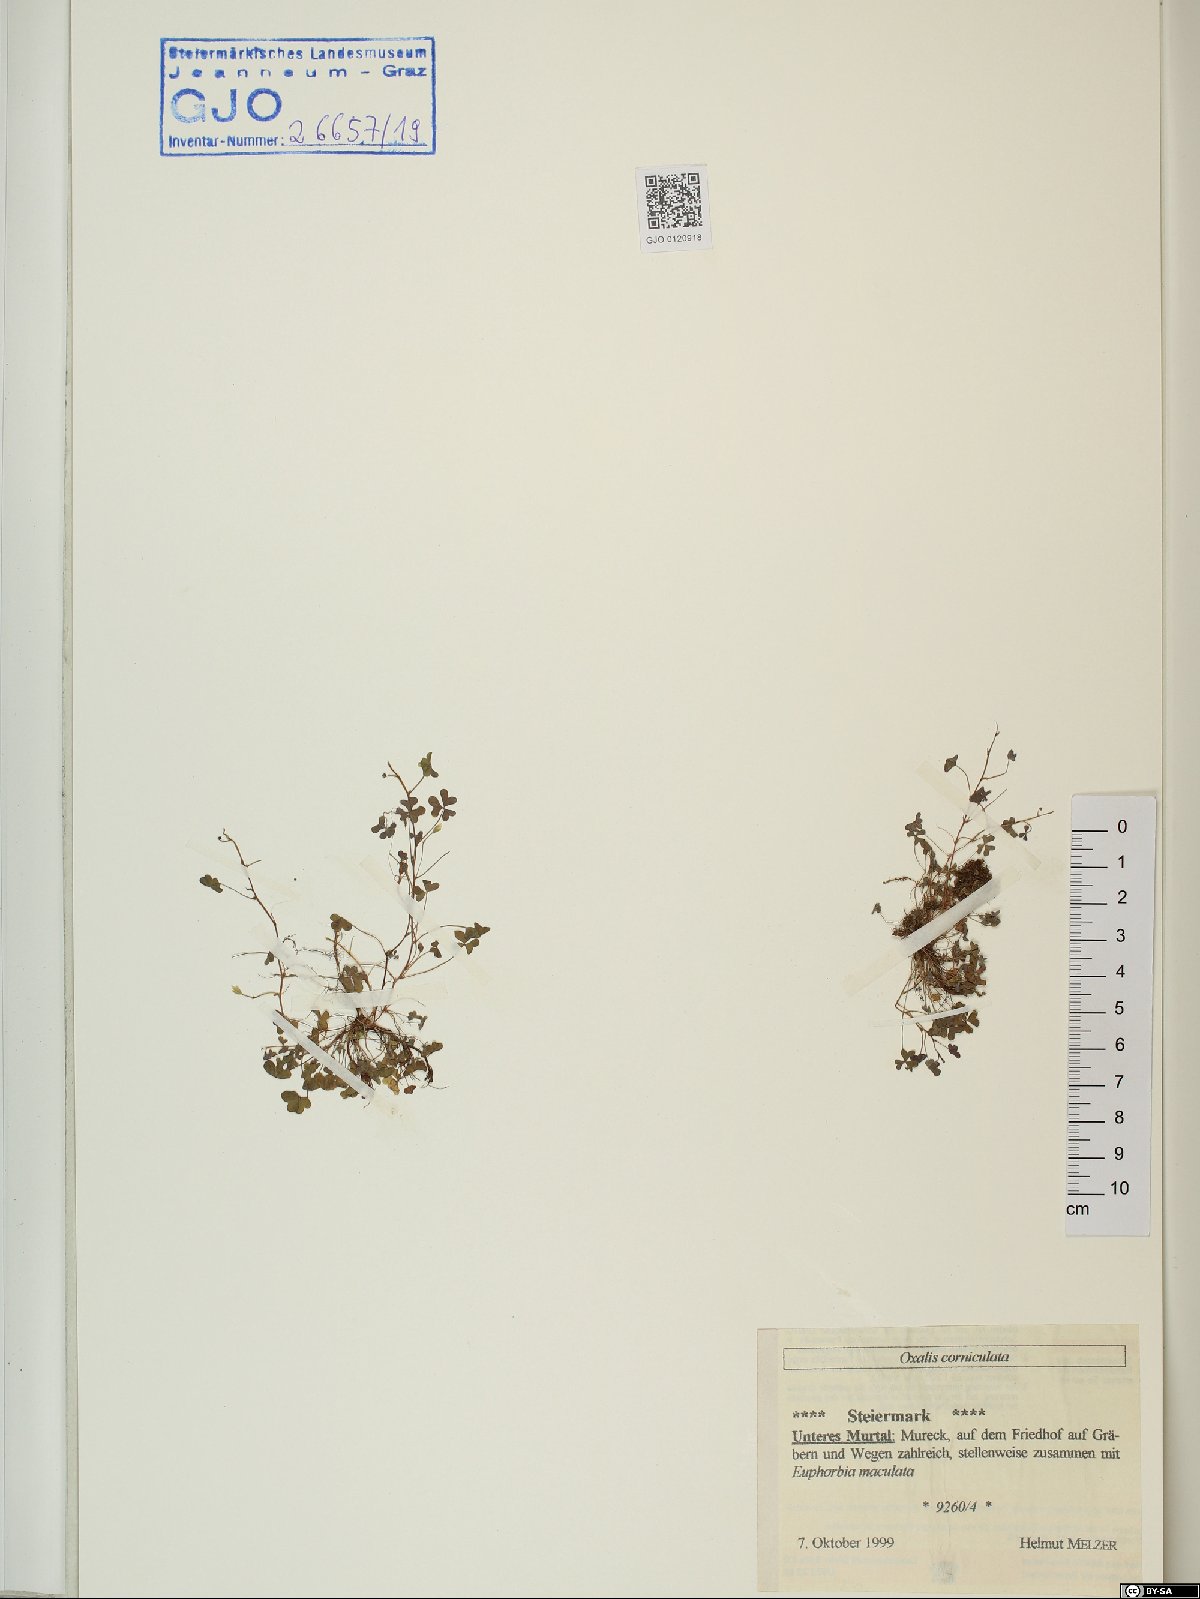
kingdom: Plantae
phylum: Tracheophyta
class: Magnoliopsida
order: Oxalidales
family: Oxalidaceae
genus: Oxalis
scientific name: Oxalis corniculata
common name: Procumbent yellow-sorrel
